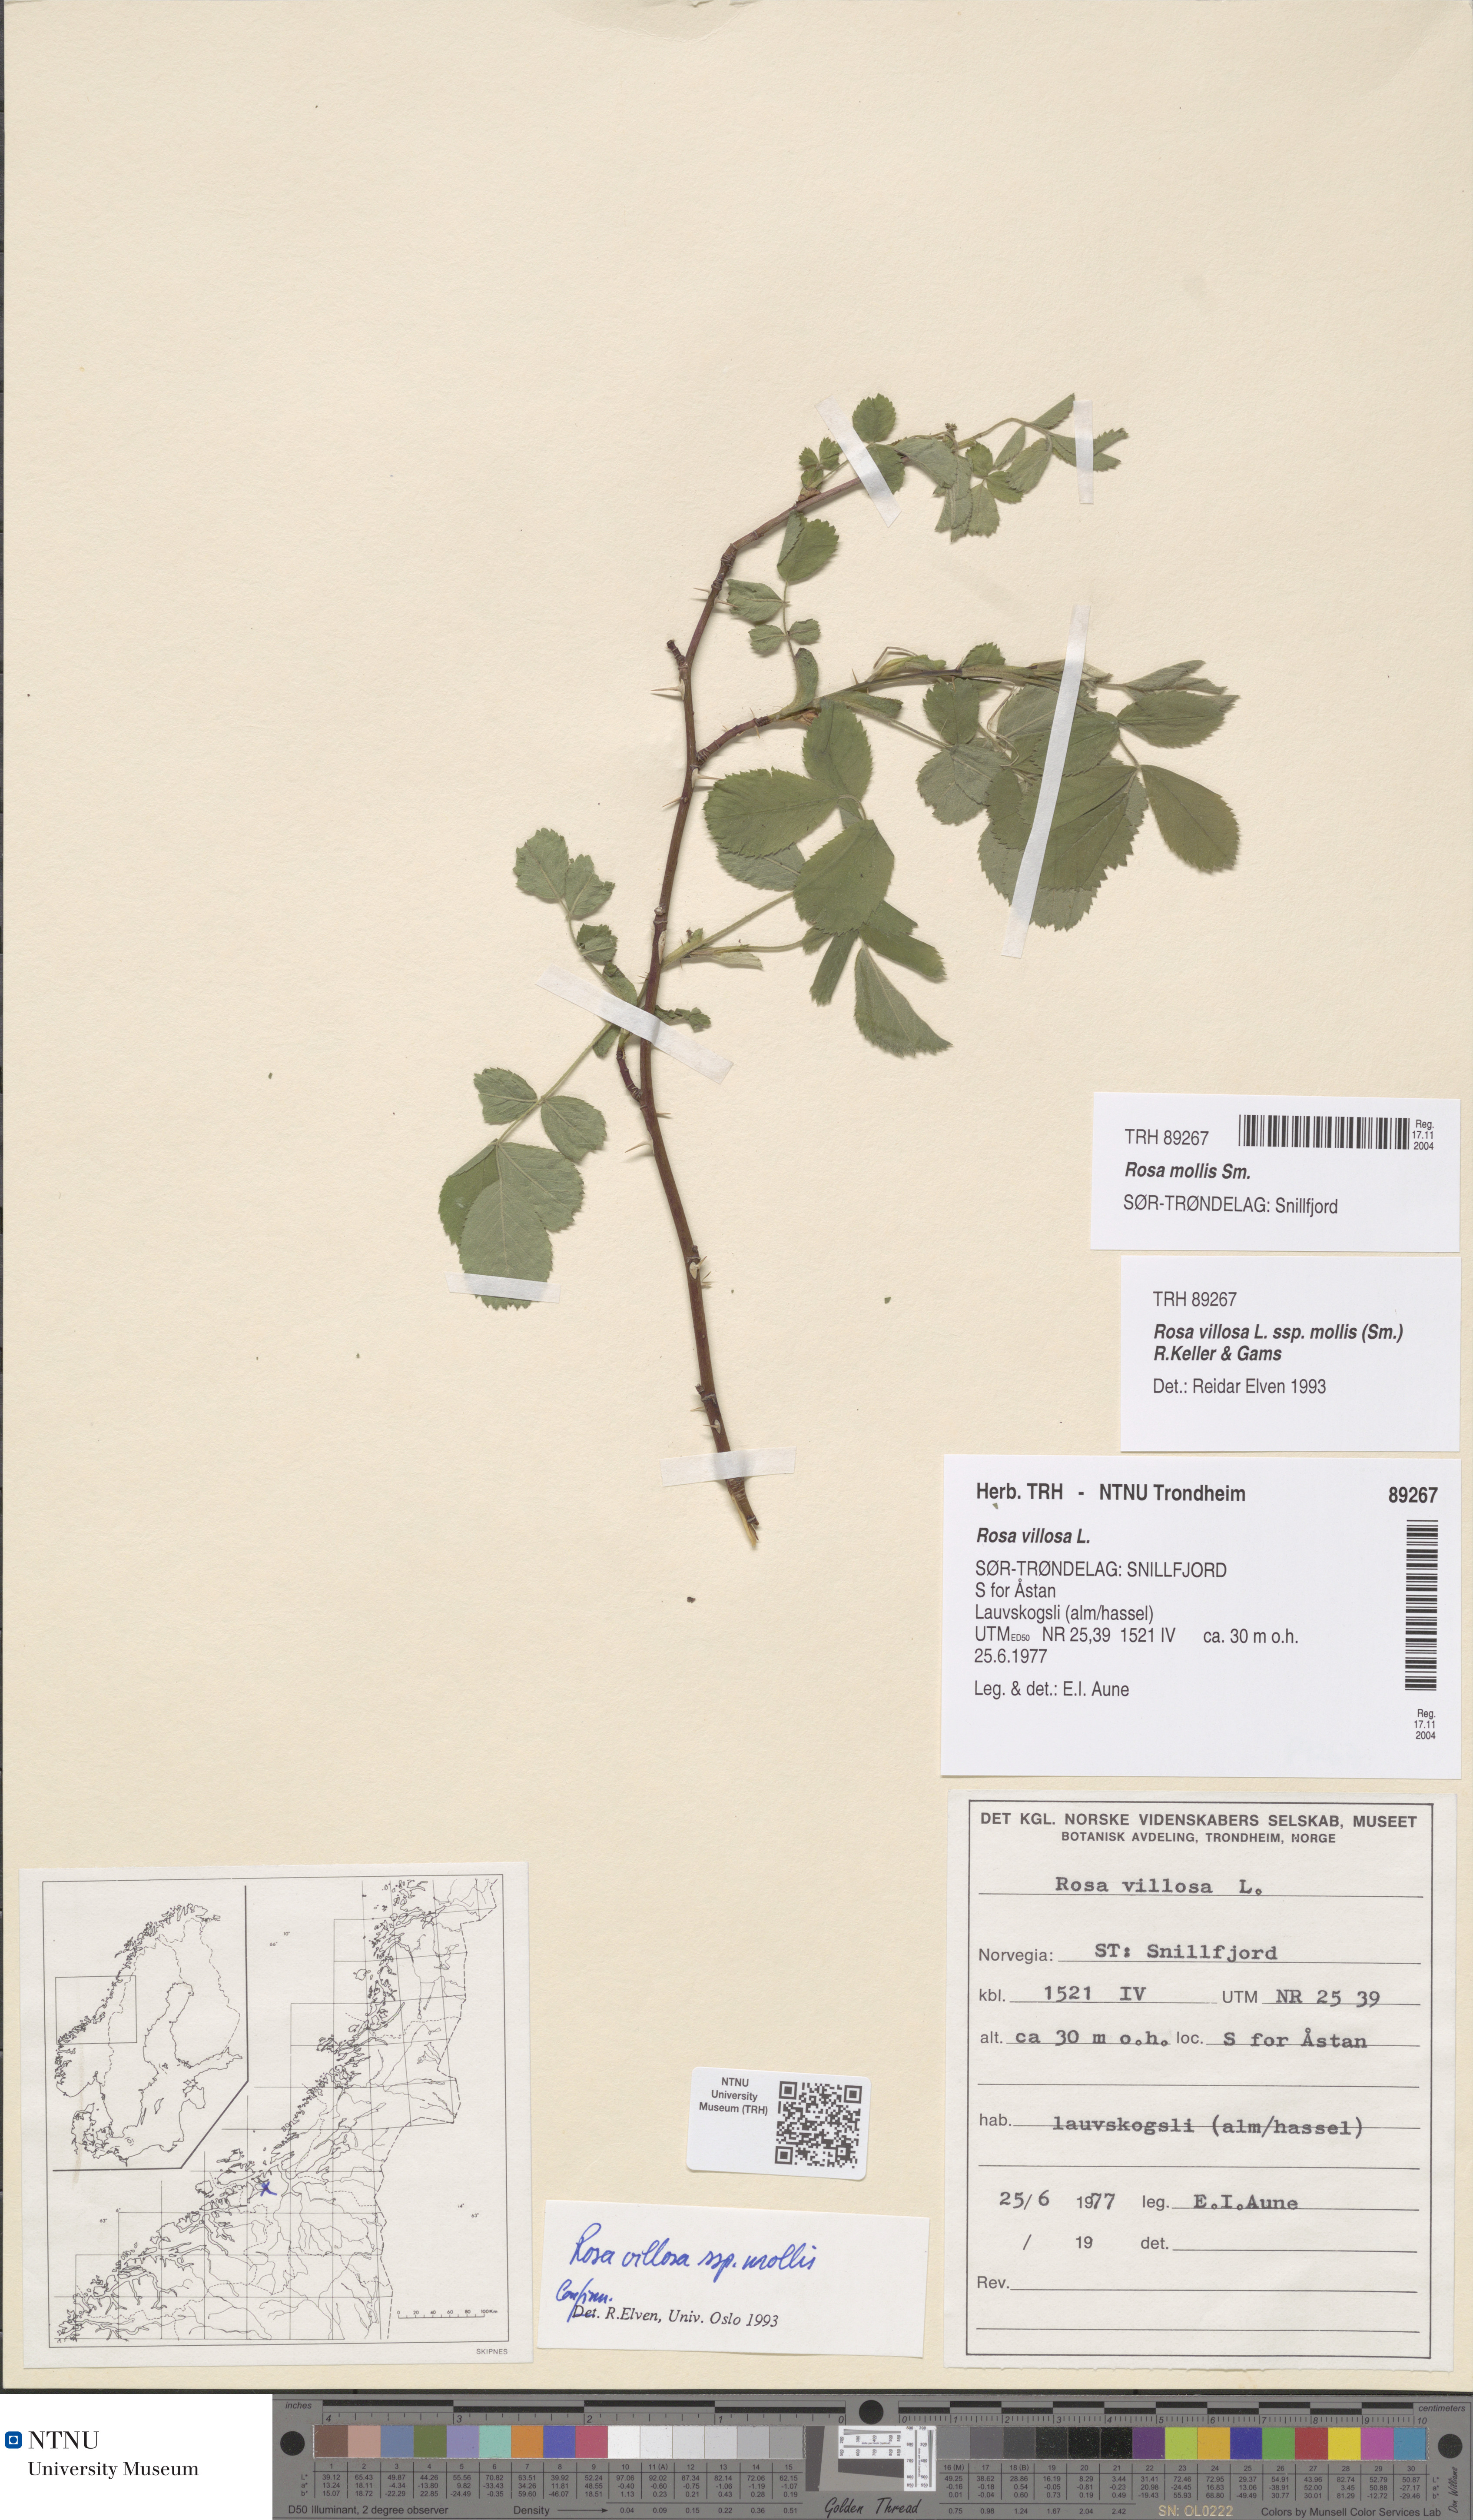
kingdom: Plantae
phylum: Tracheophyta
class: Magnoliopsida
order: Rosales
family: Rosaceae
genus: Rosa
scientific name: Rosa mollis
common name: Rose
